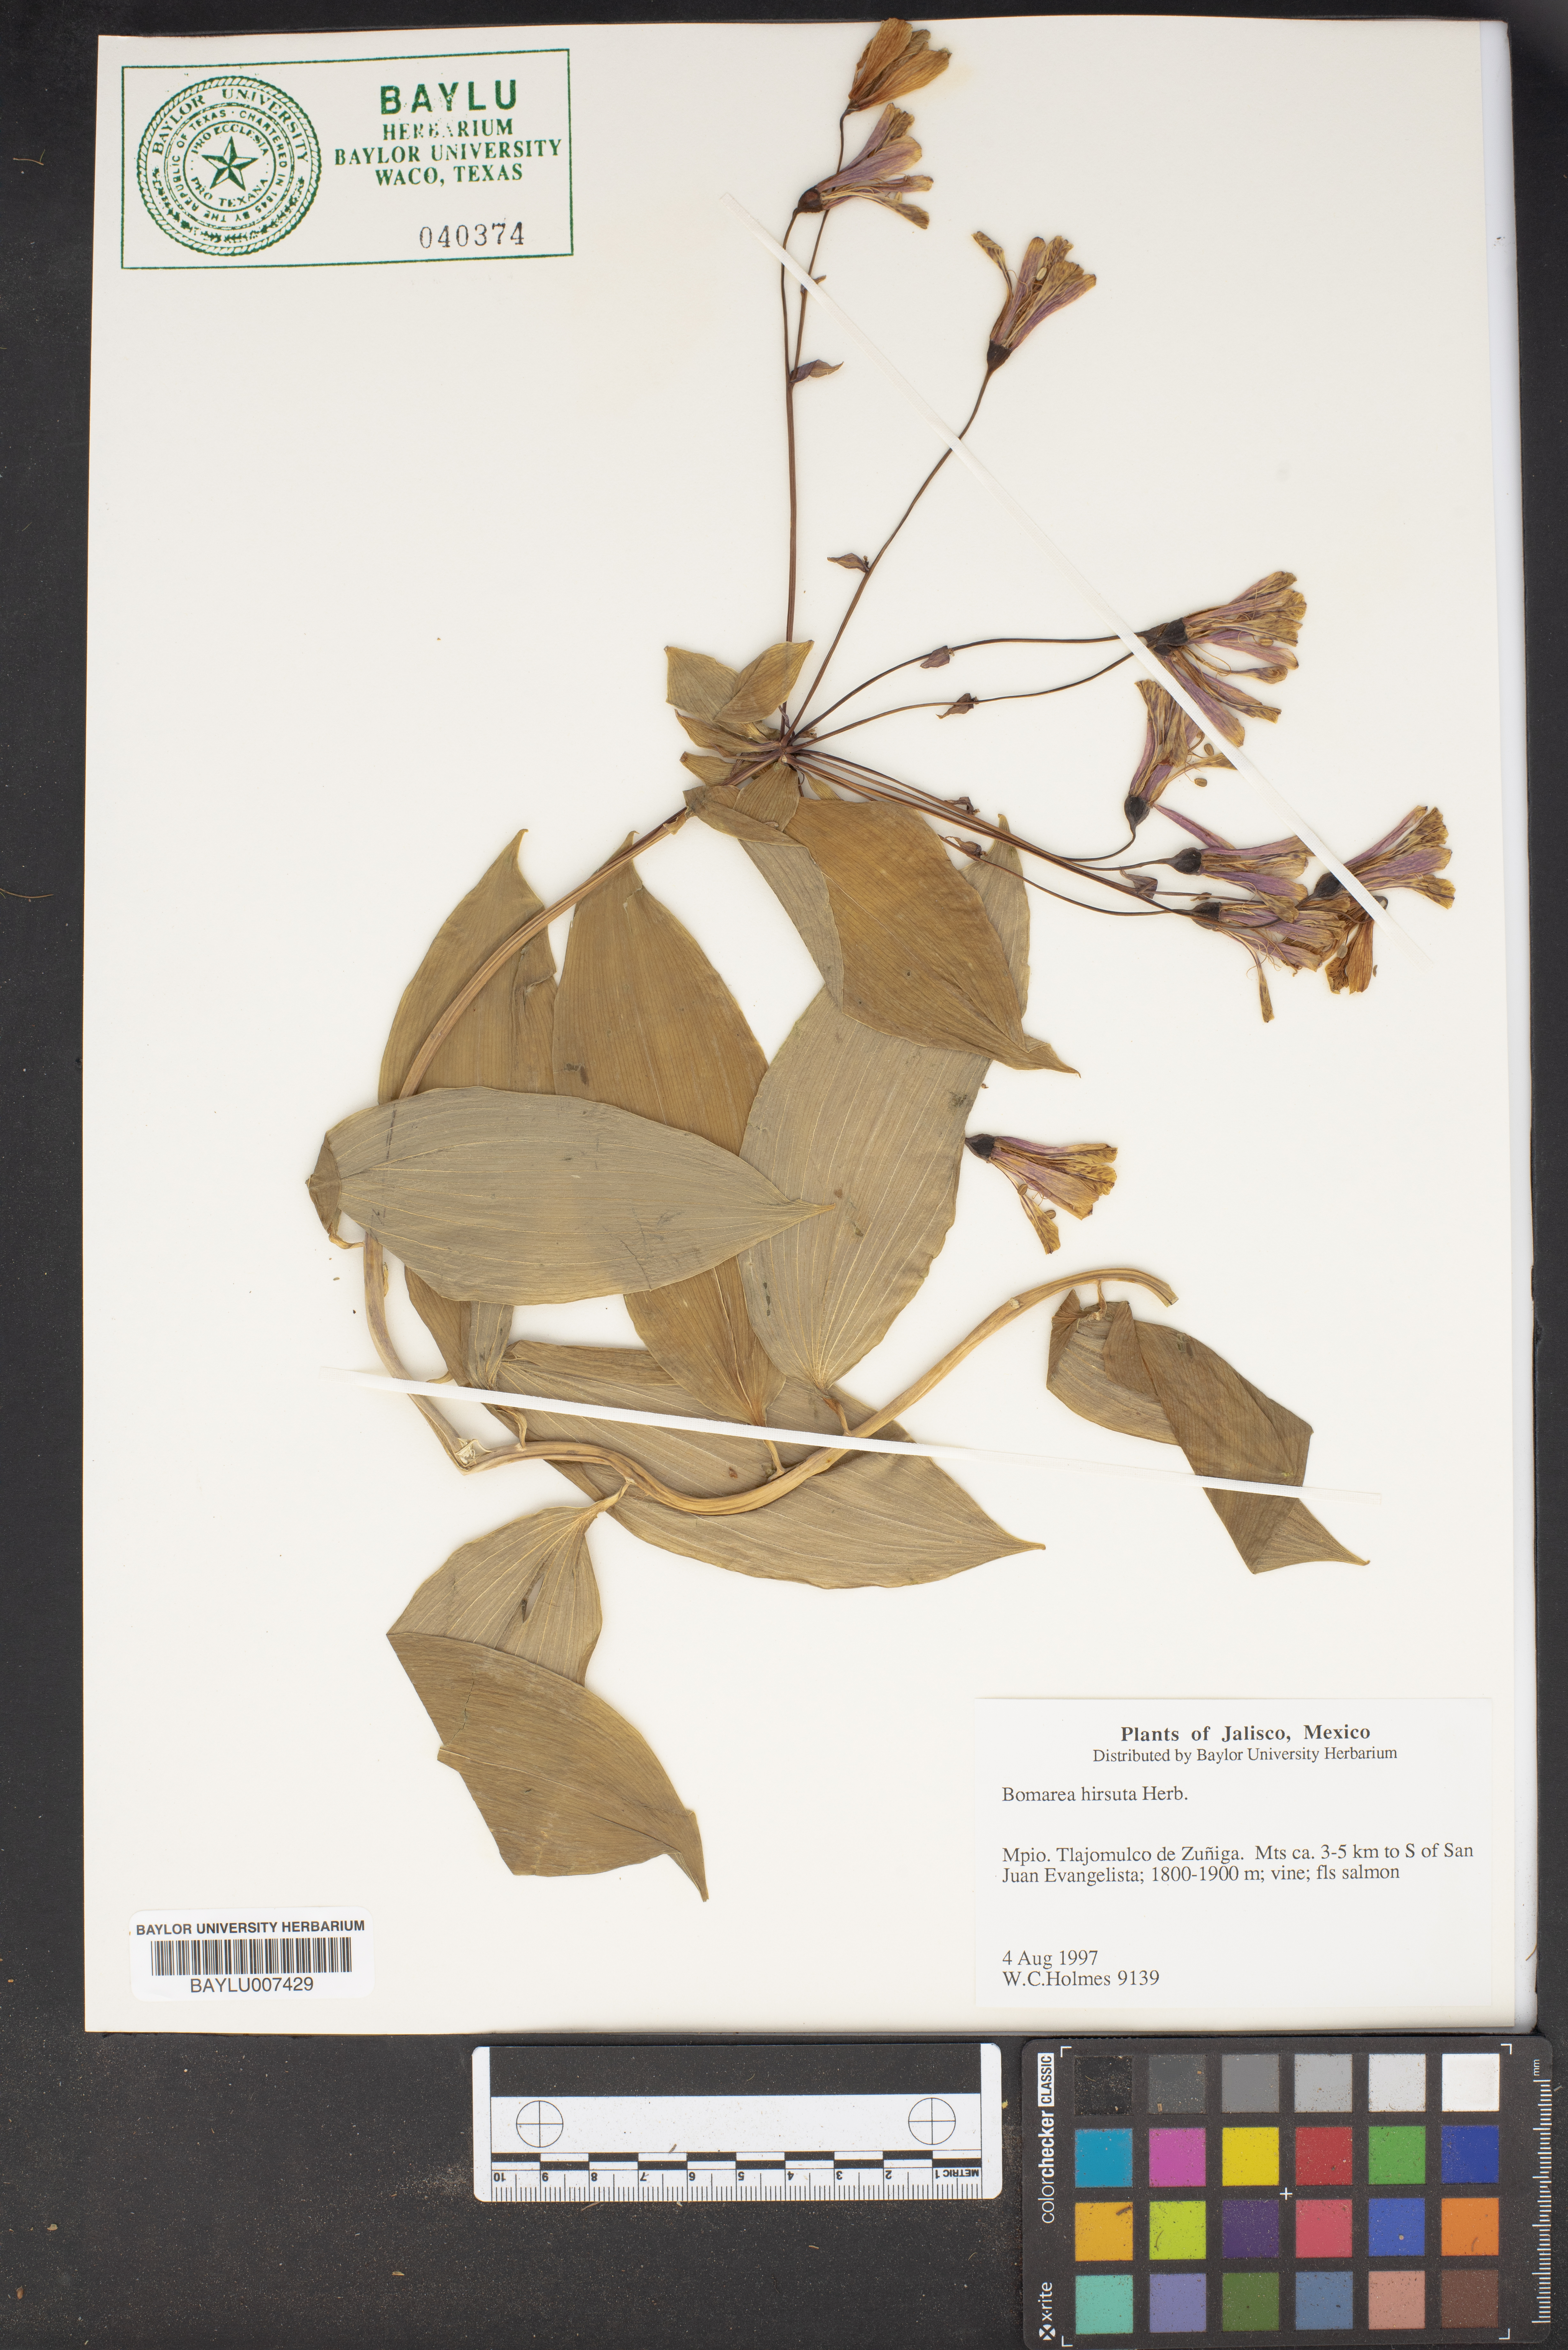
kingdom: Plantae
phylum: Tracheophyta
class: Liliopsida
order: Liliales
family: Alstroemeriaceae
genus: Bomarea
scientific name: Bomarea hirsuta
